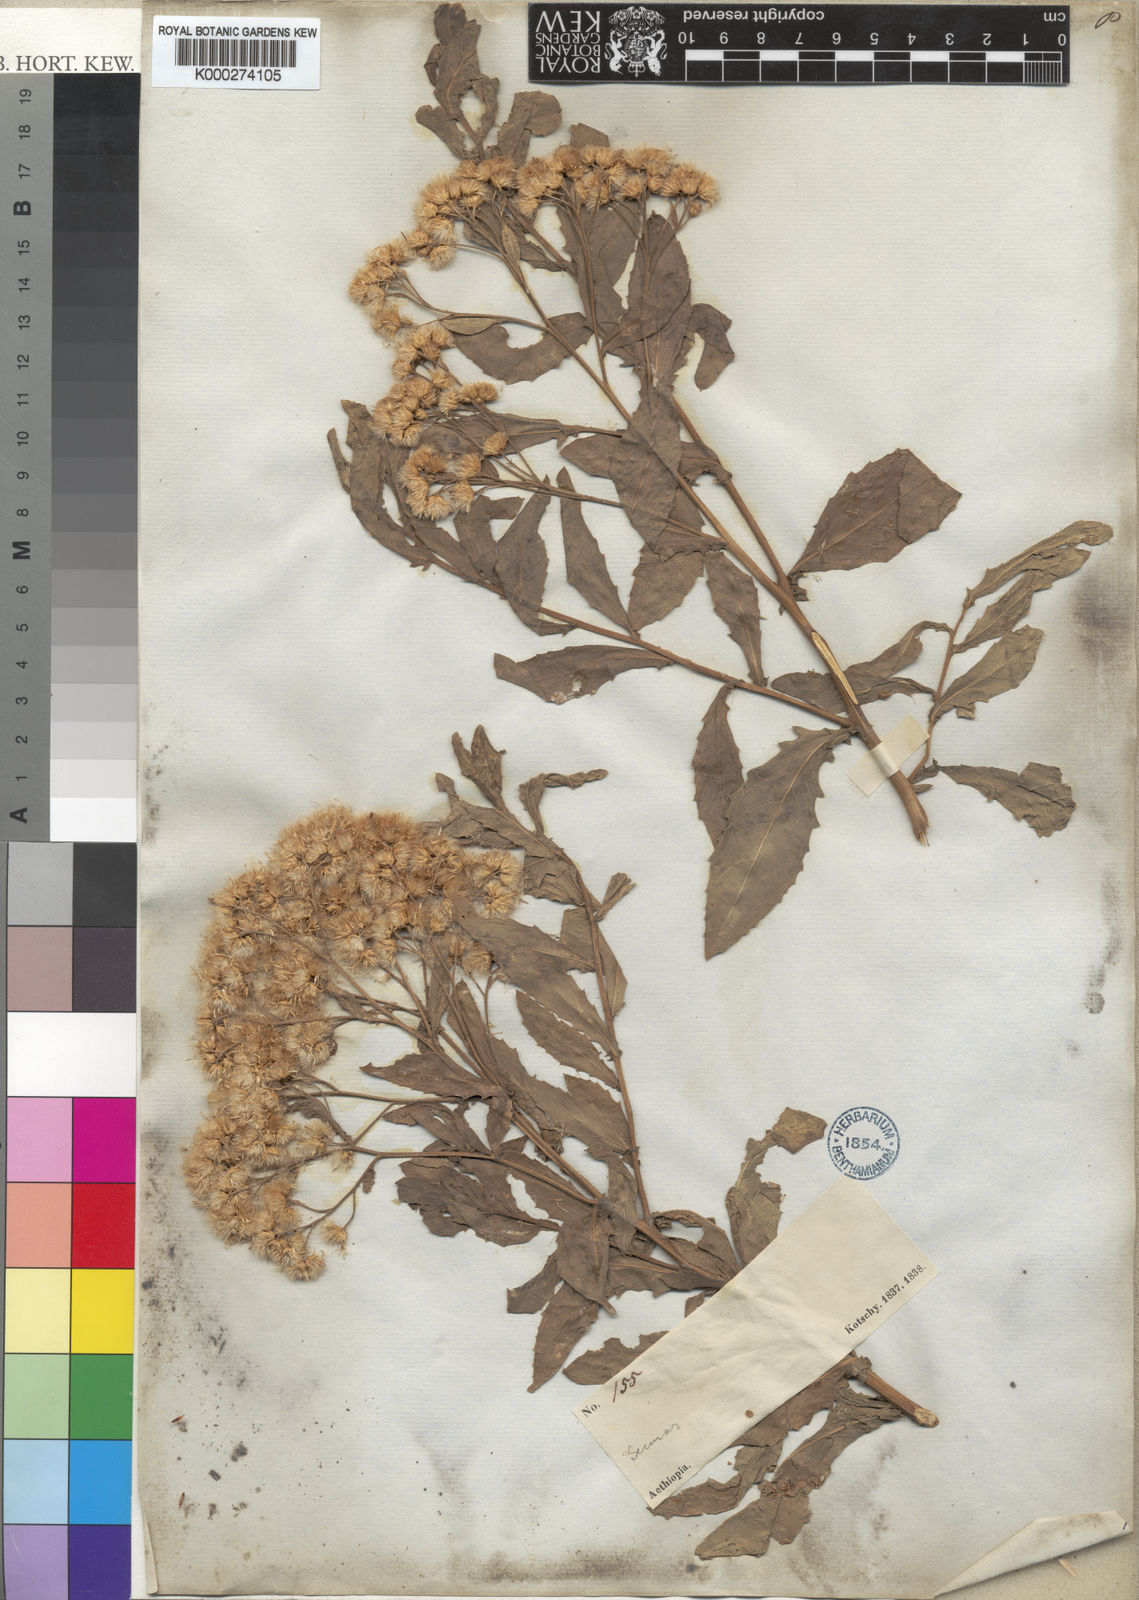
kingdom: Plantae
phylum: Tracheophyta
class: Magnoliopsida
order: Asterales
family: Asteraceae
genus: Pluchea
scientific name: Pluchea dioscoridis
